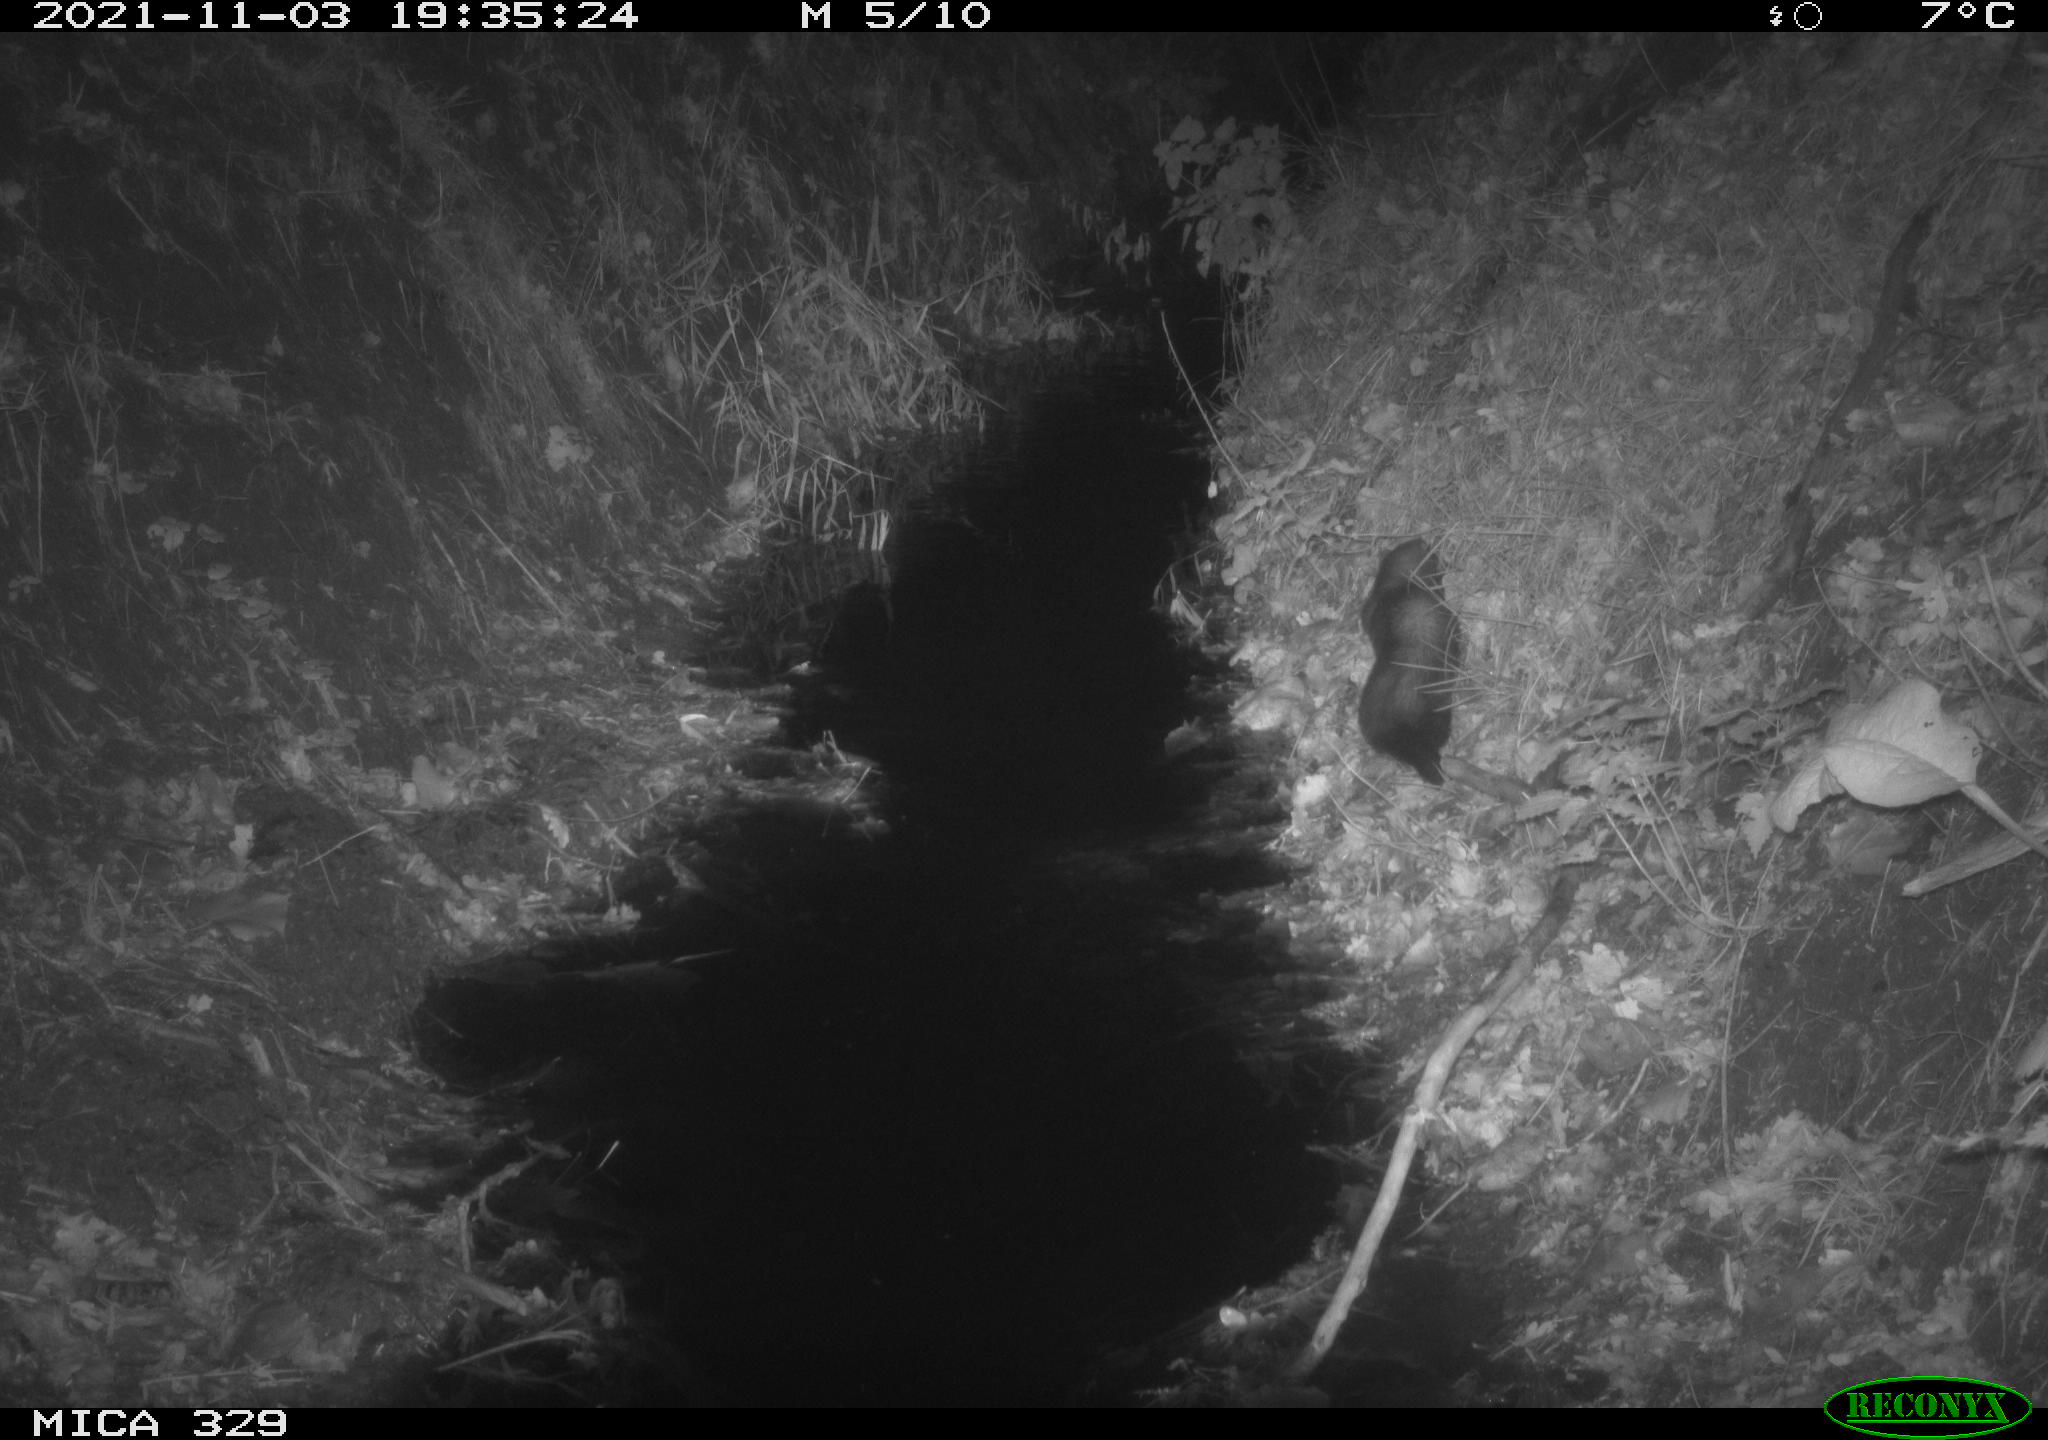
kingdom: Animalia
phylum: Chordata
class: Mammalia
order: Carnivora
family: Mustelidae
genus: Mustela
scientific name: Mustela putorius
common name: European polecat
